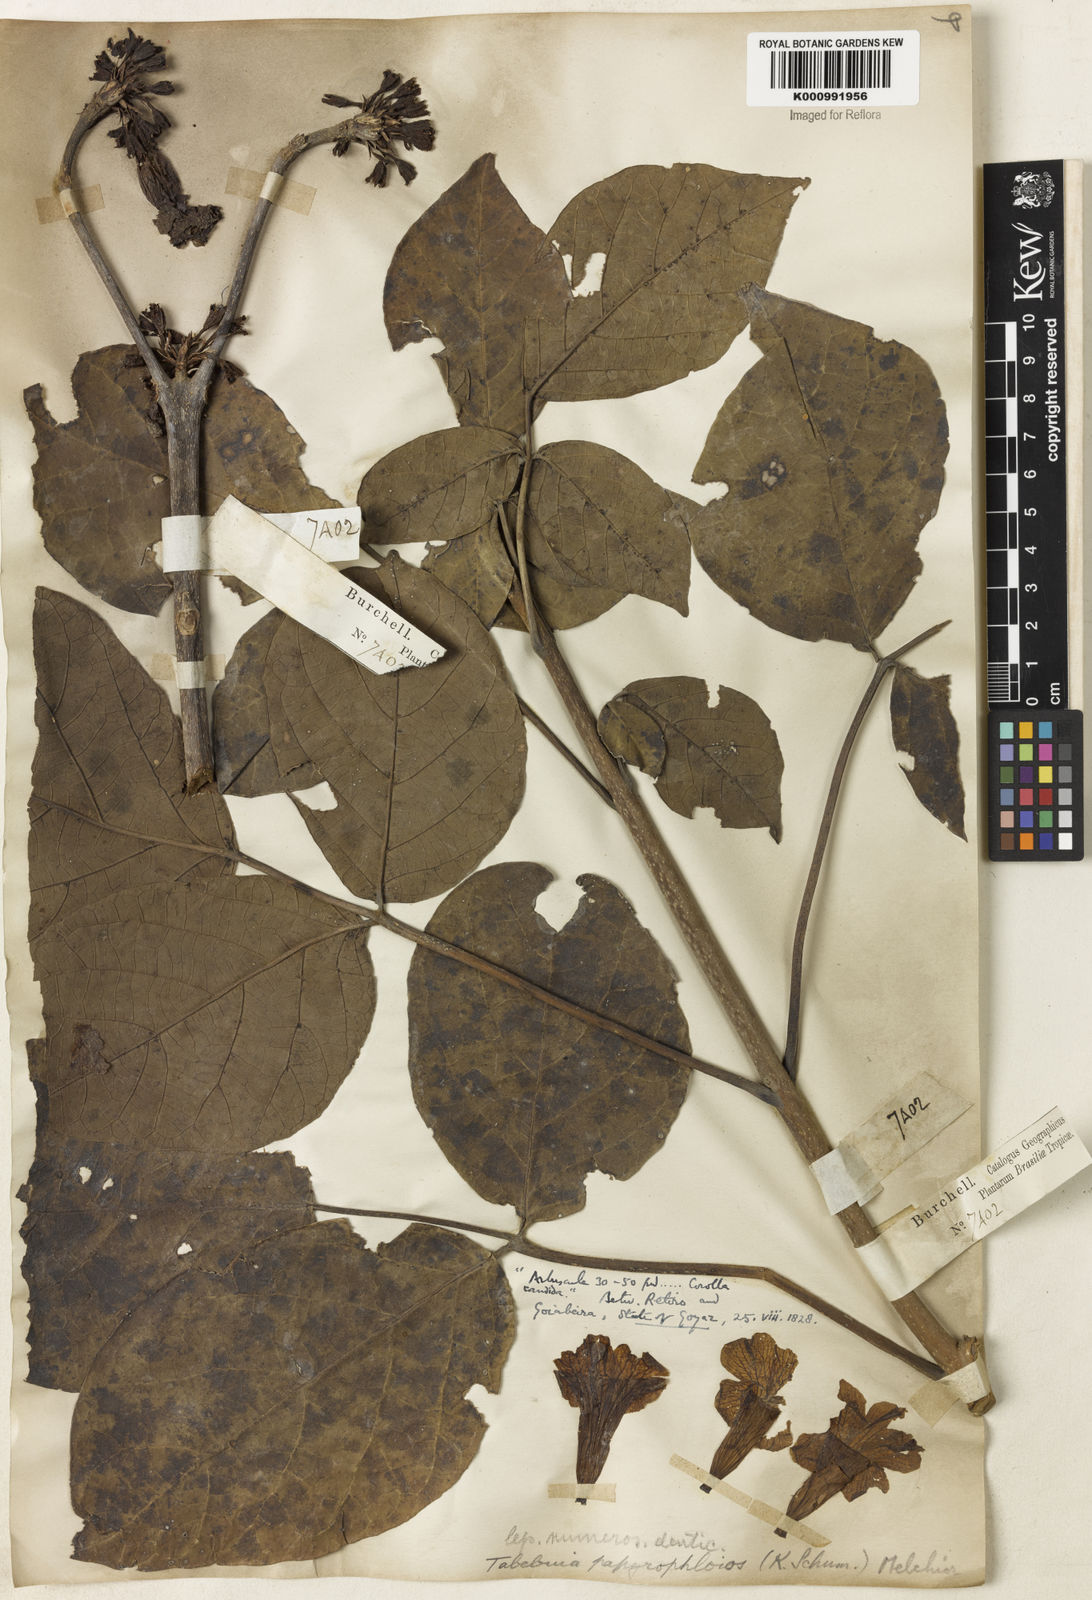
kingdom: Plantae
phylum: Tracheophyta
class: Magnoliopsida
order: Lamiales
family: Bignoniaceae
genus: Tabebuia
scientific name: Tabebuia roseoalba
